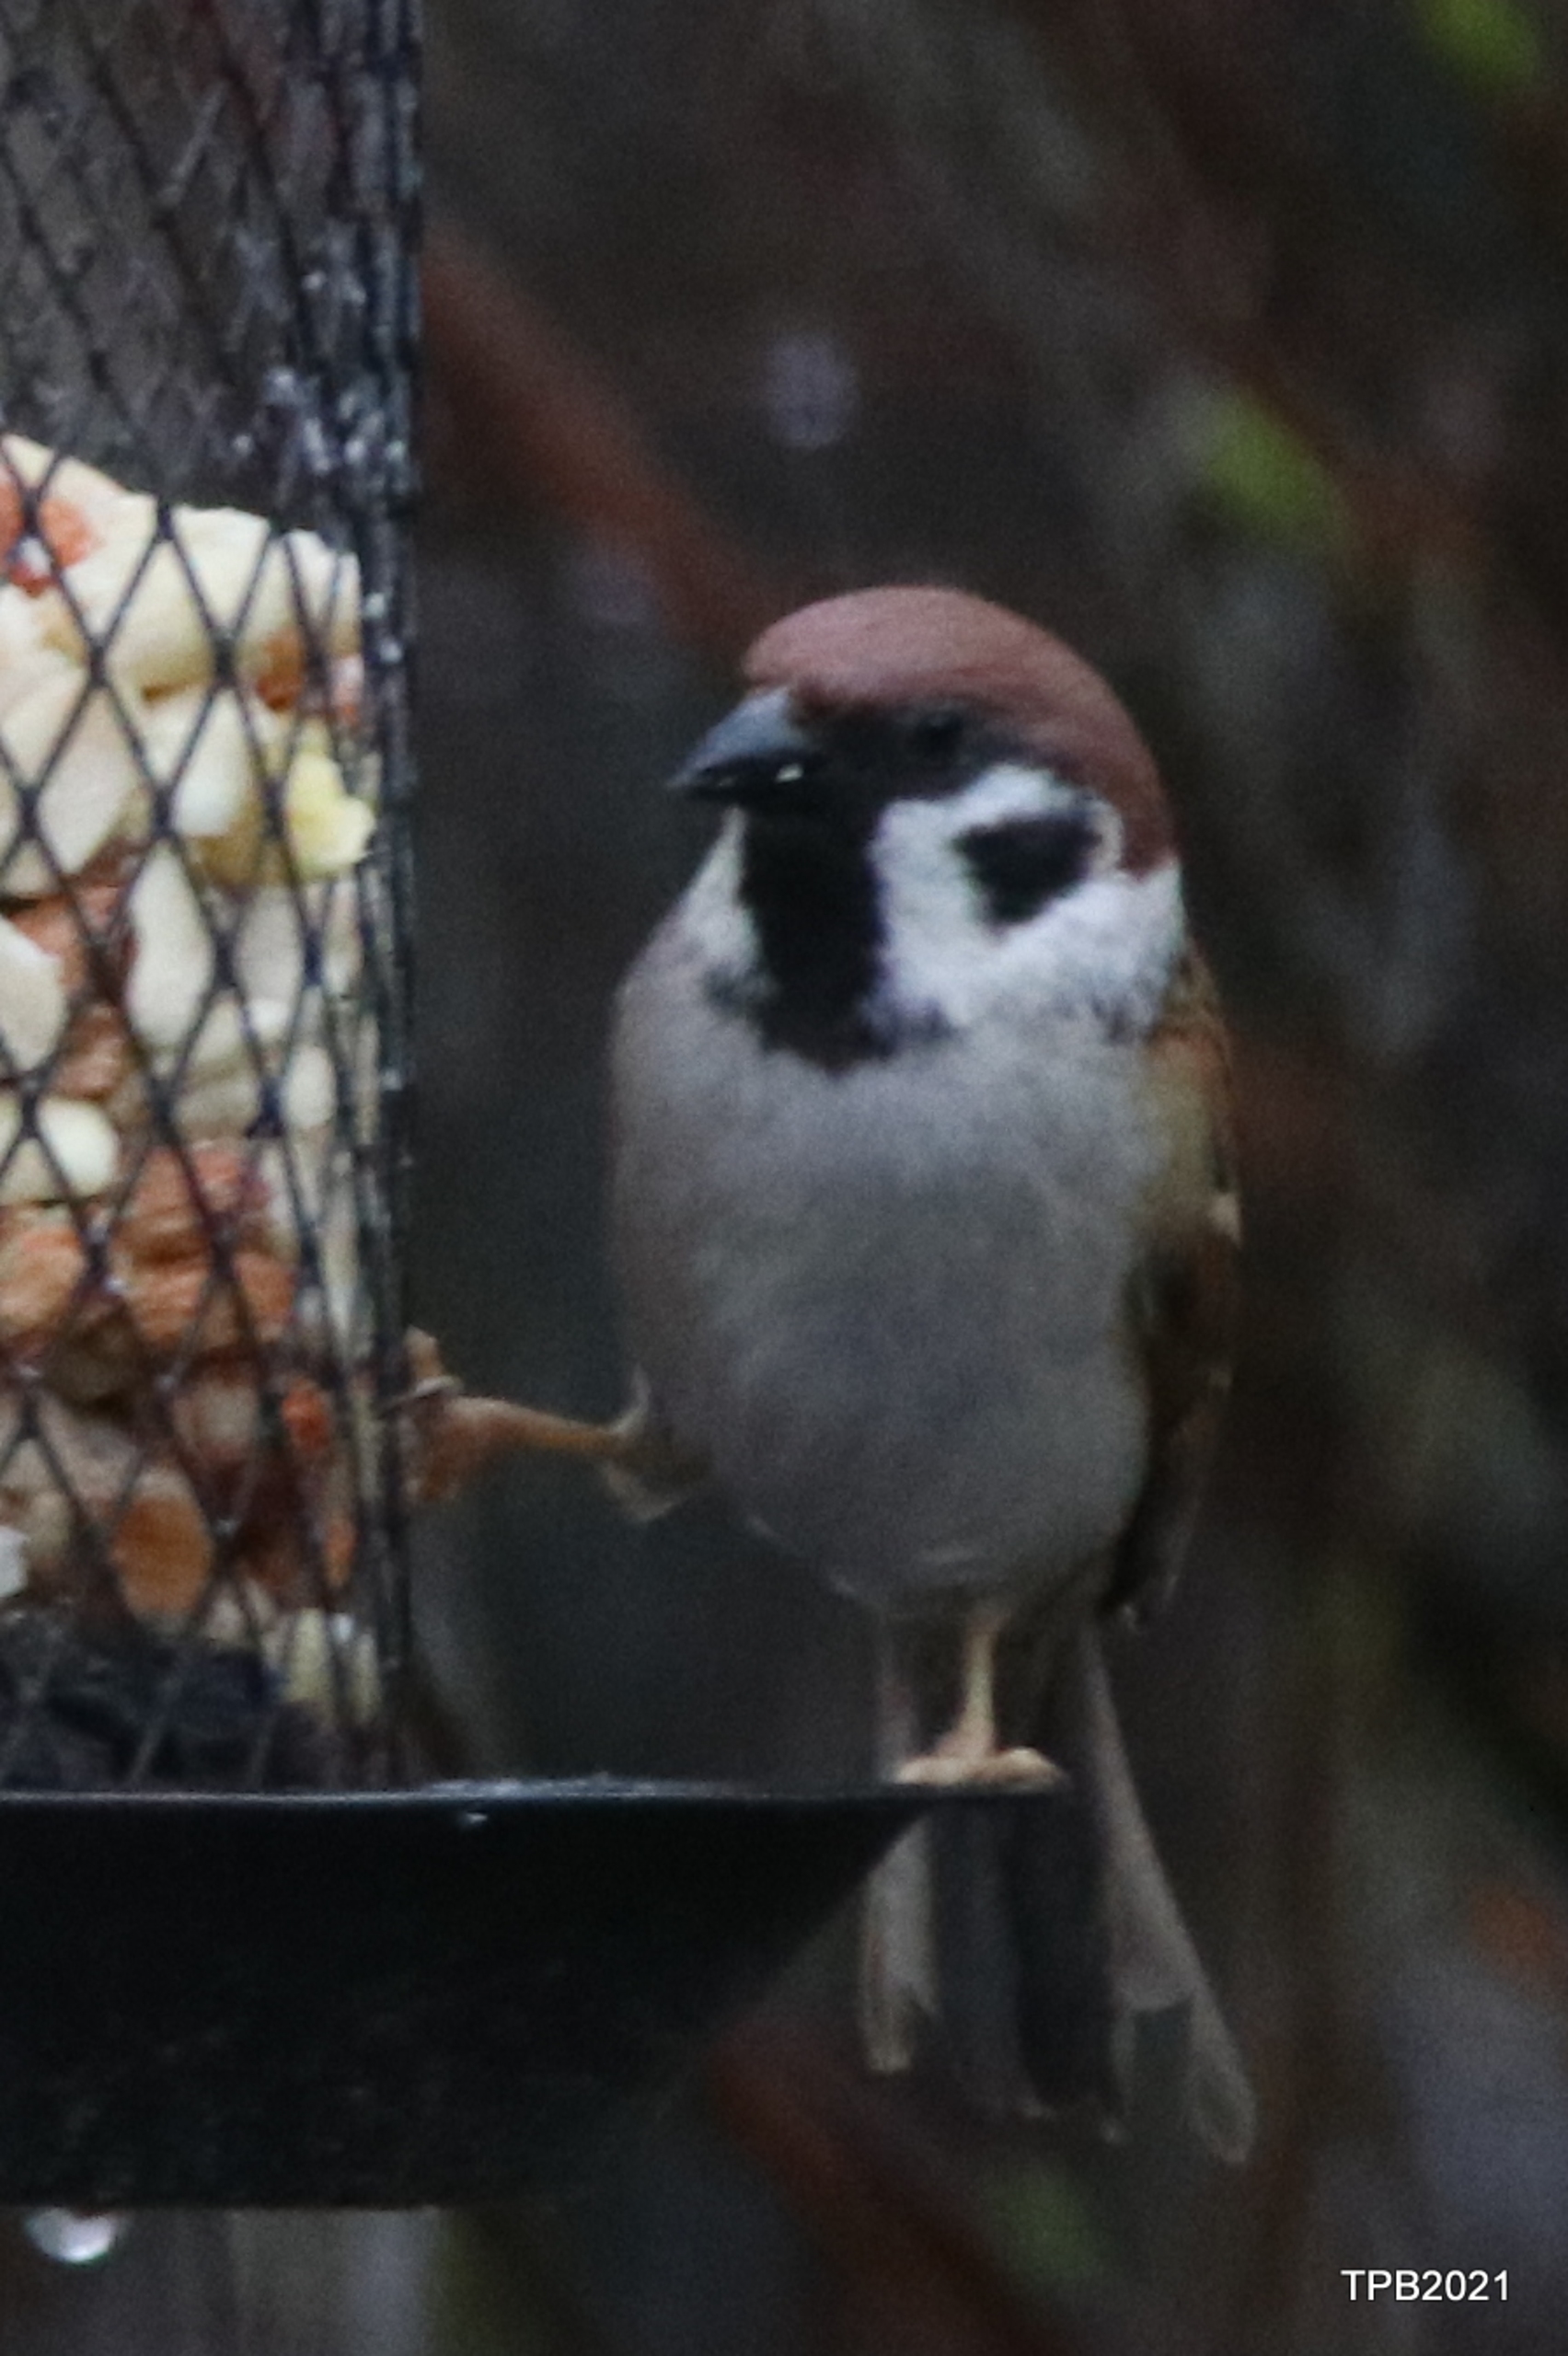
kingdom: Animalia
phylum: Chordata
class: Aves
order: Passeriformes
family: Passeridae
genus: Passer
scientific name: Passer montanus
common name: Skovspurv
